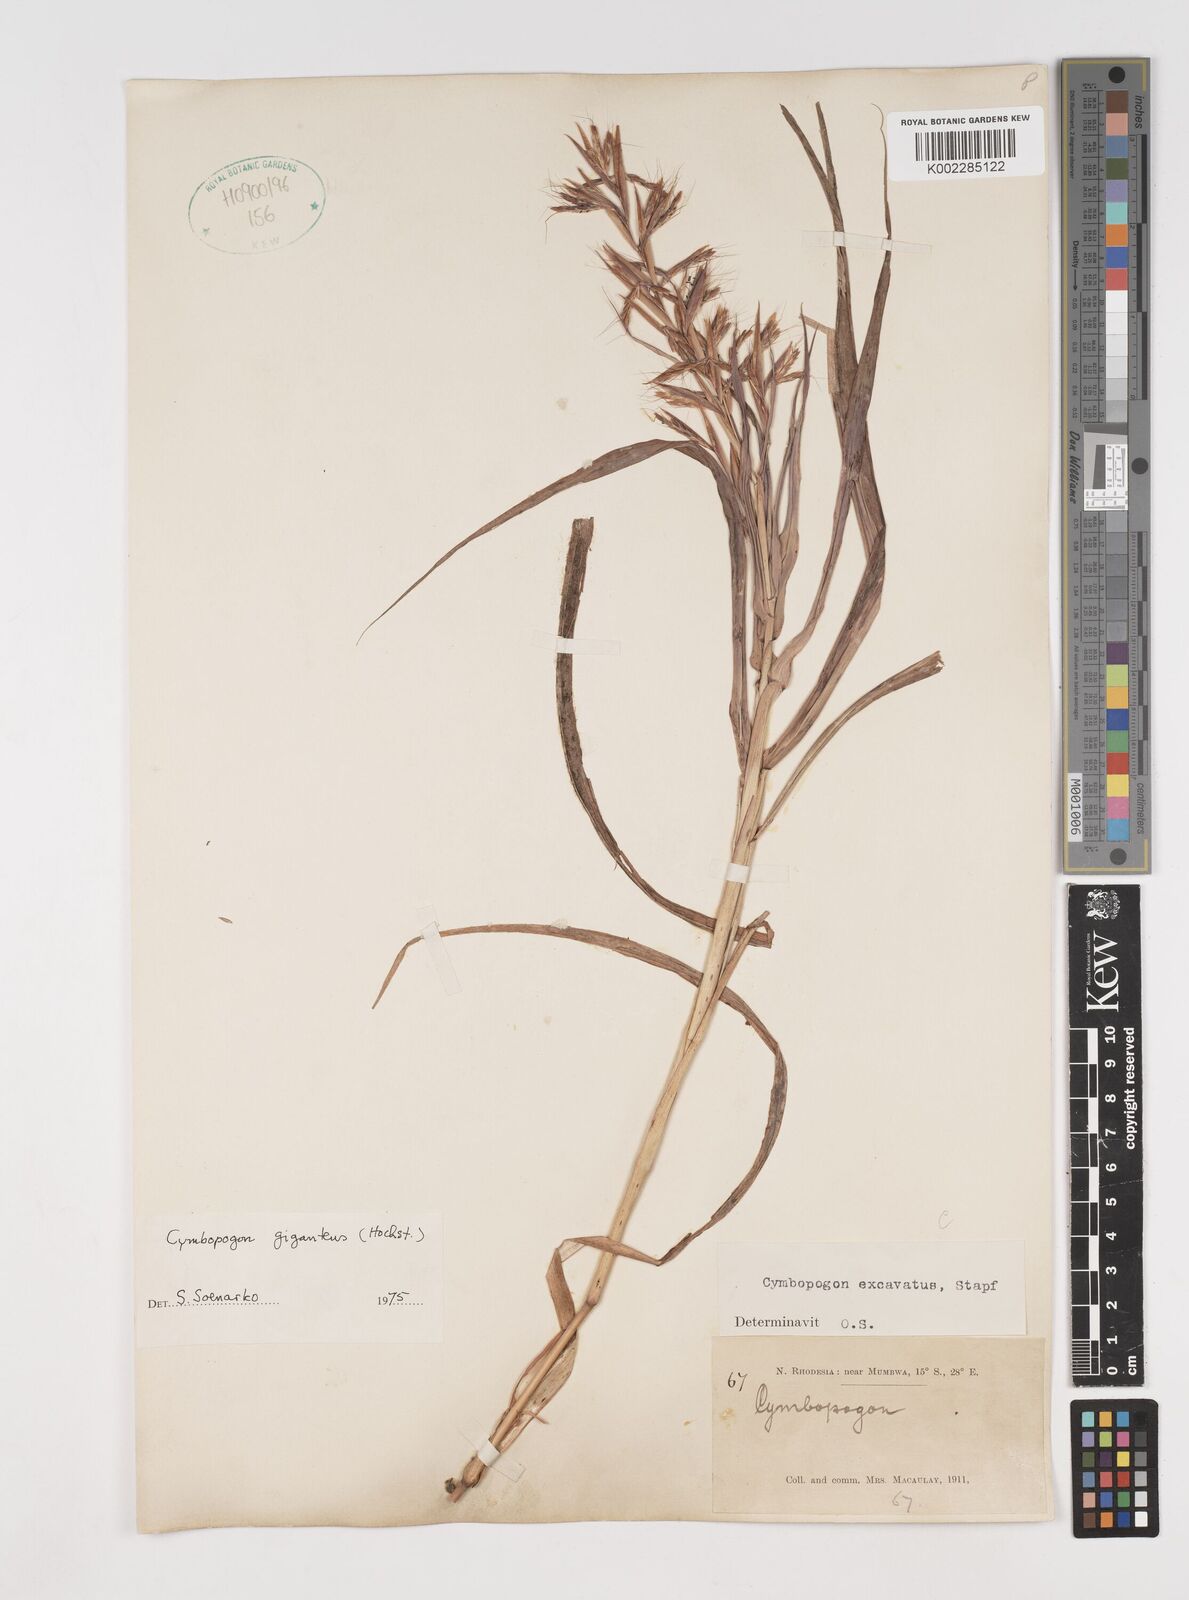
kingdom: Plantae
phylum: Tracheophyta
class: Liliopsida
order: Poales
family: Poaceae
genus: Cymbopogon
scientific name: Cymbopogon giganteus
